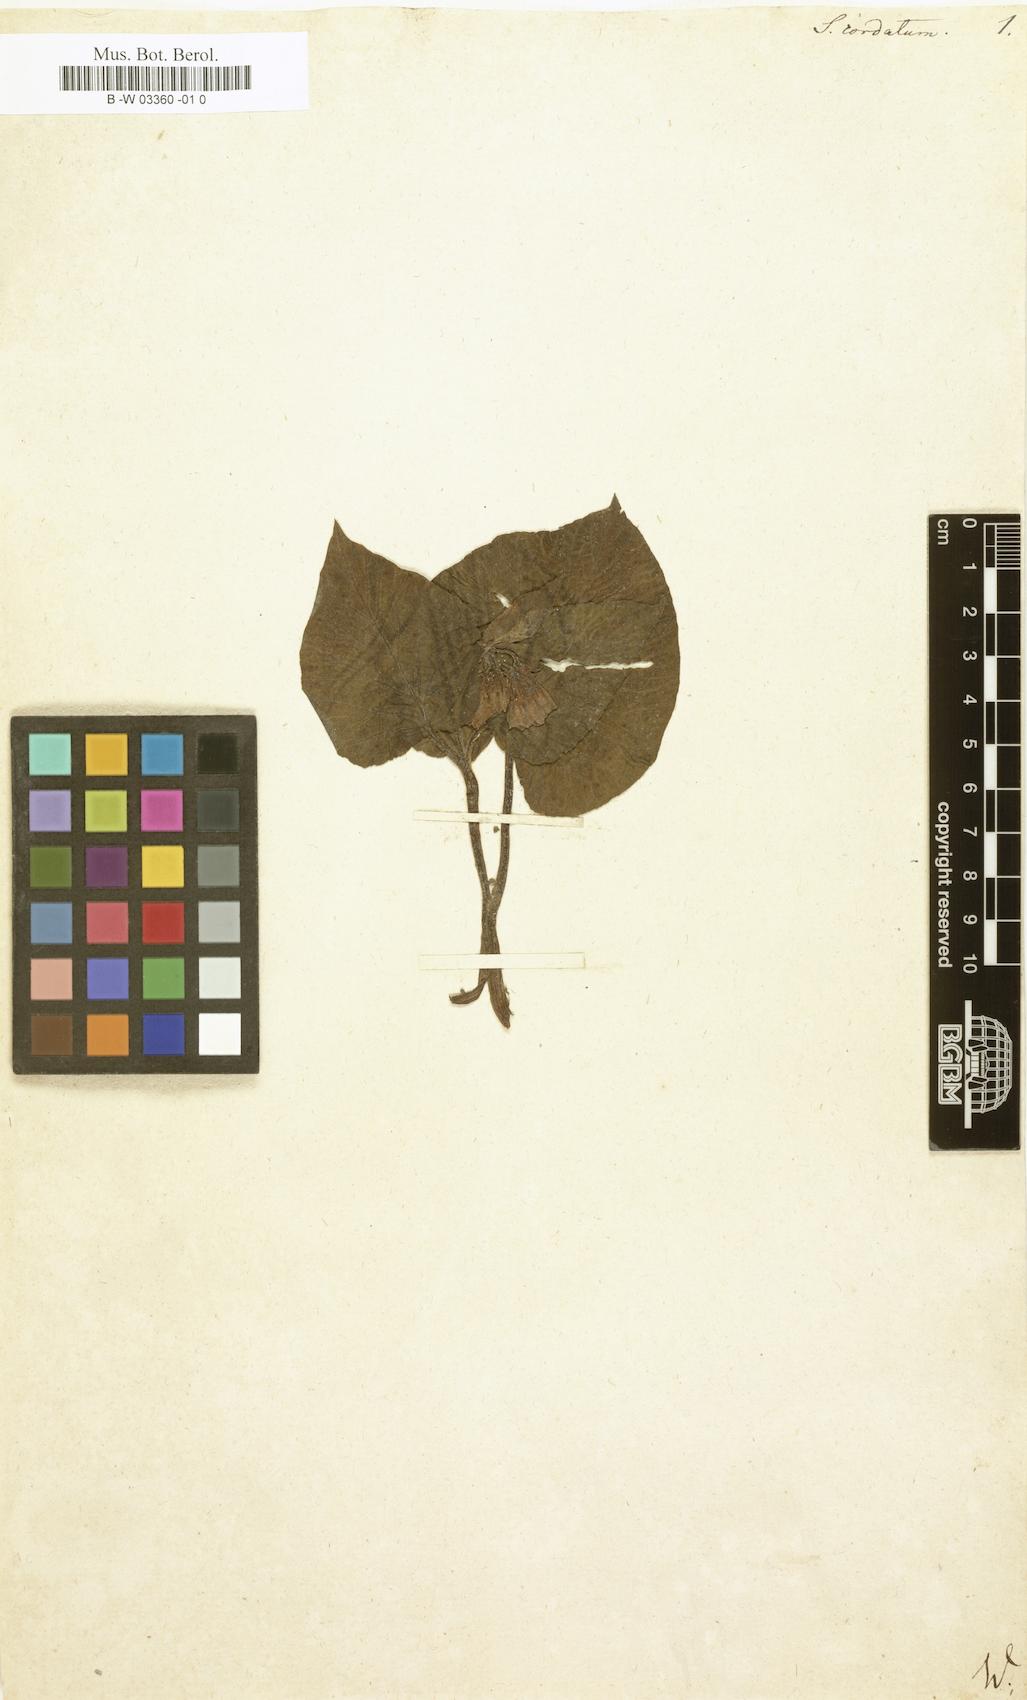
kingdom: Plantae
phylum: Tracheophyta
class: Magnoliopsida
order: Boraginales
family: Boraginaceae
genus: Symphytum
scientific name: Symphytum cordatum
